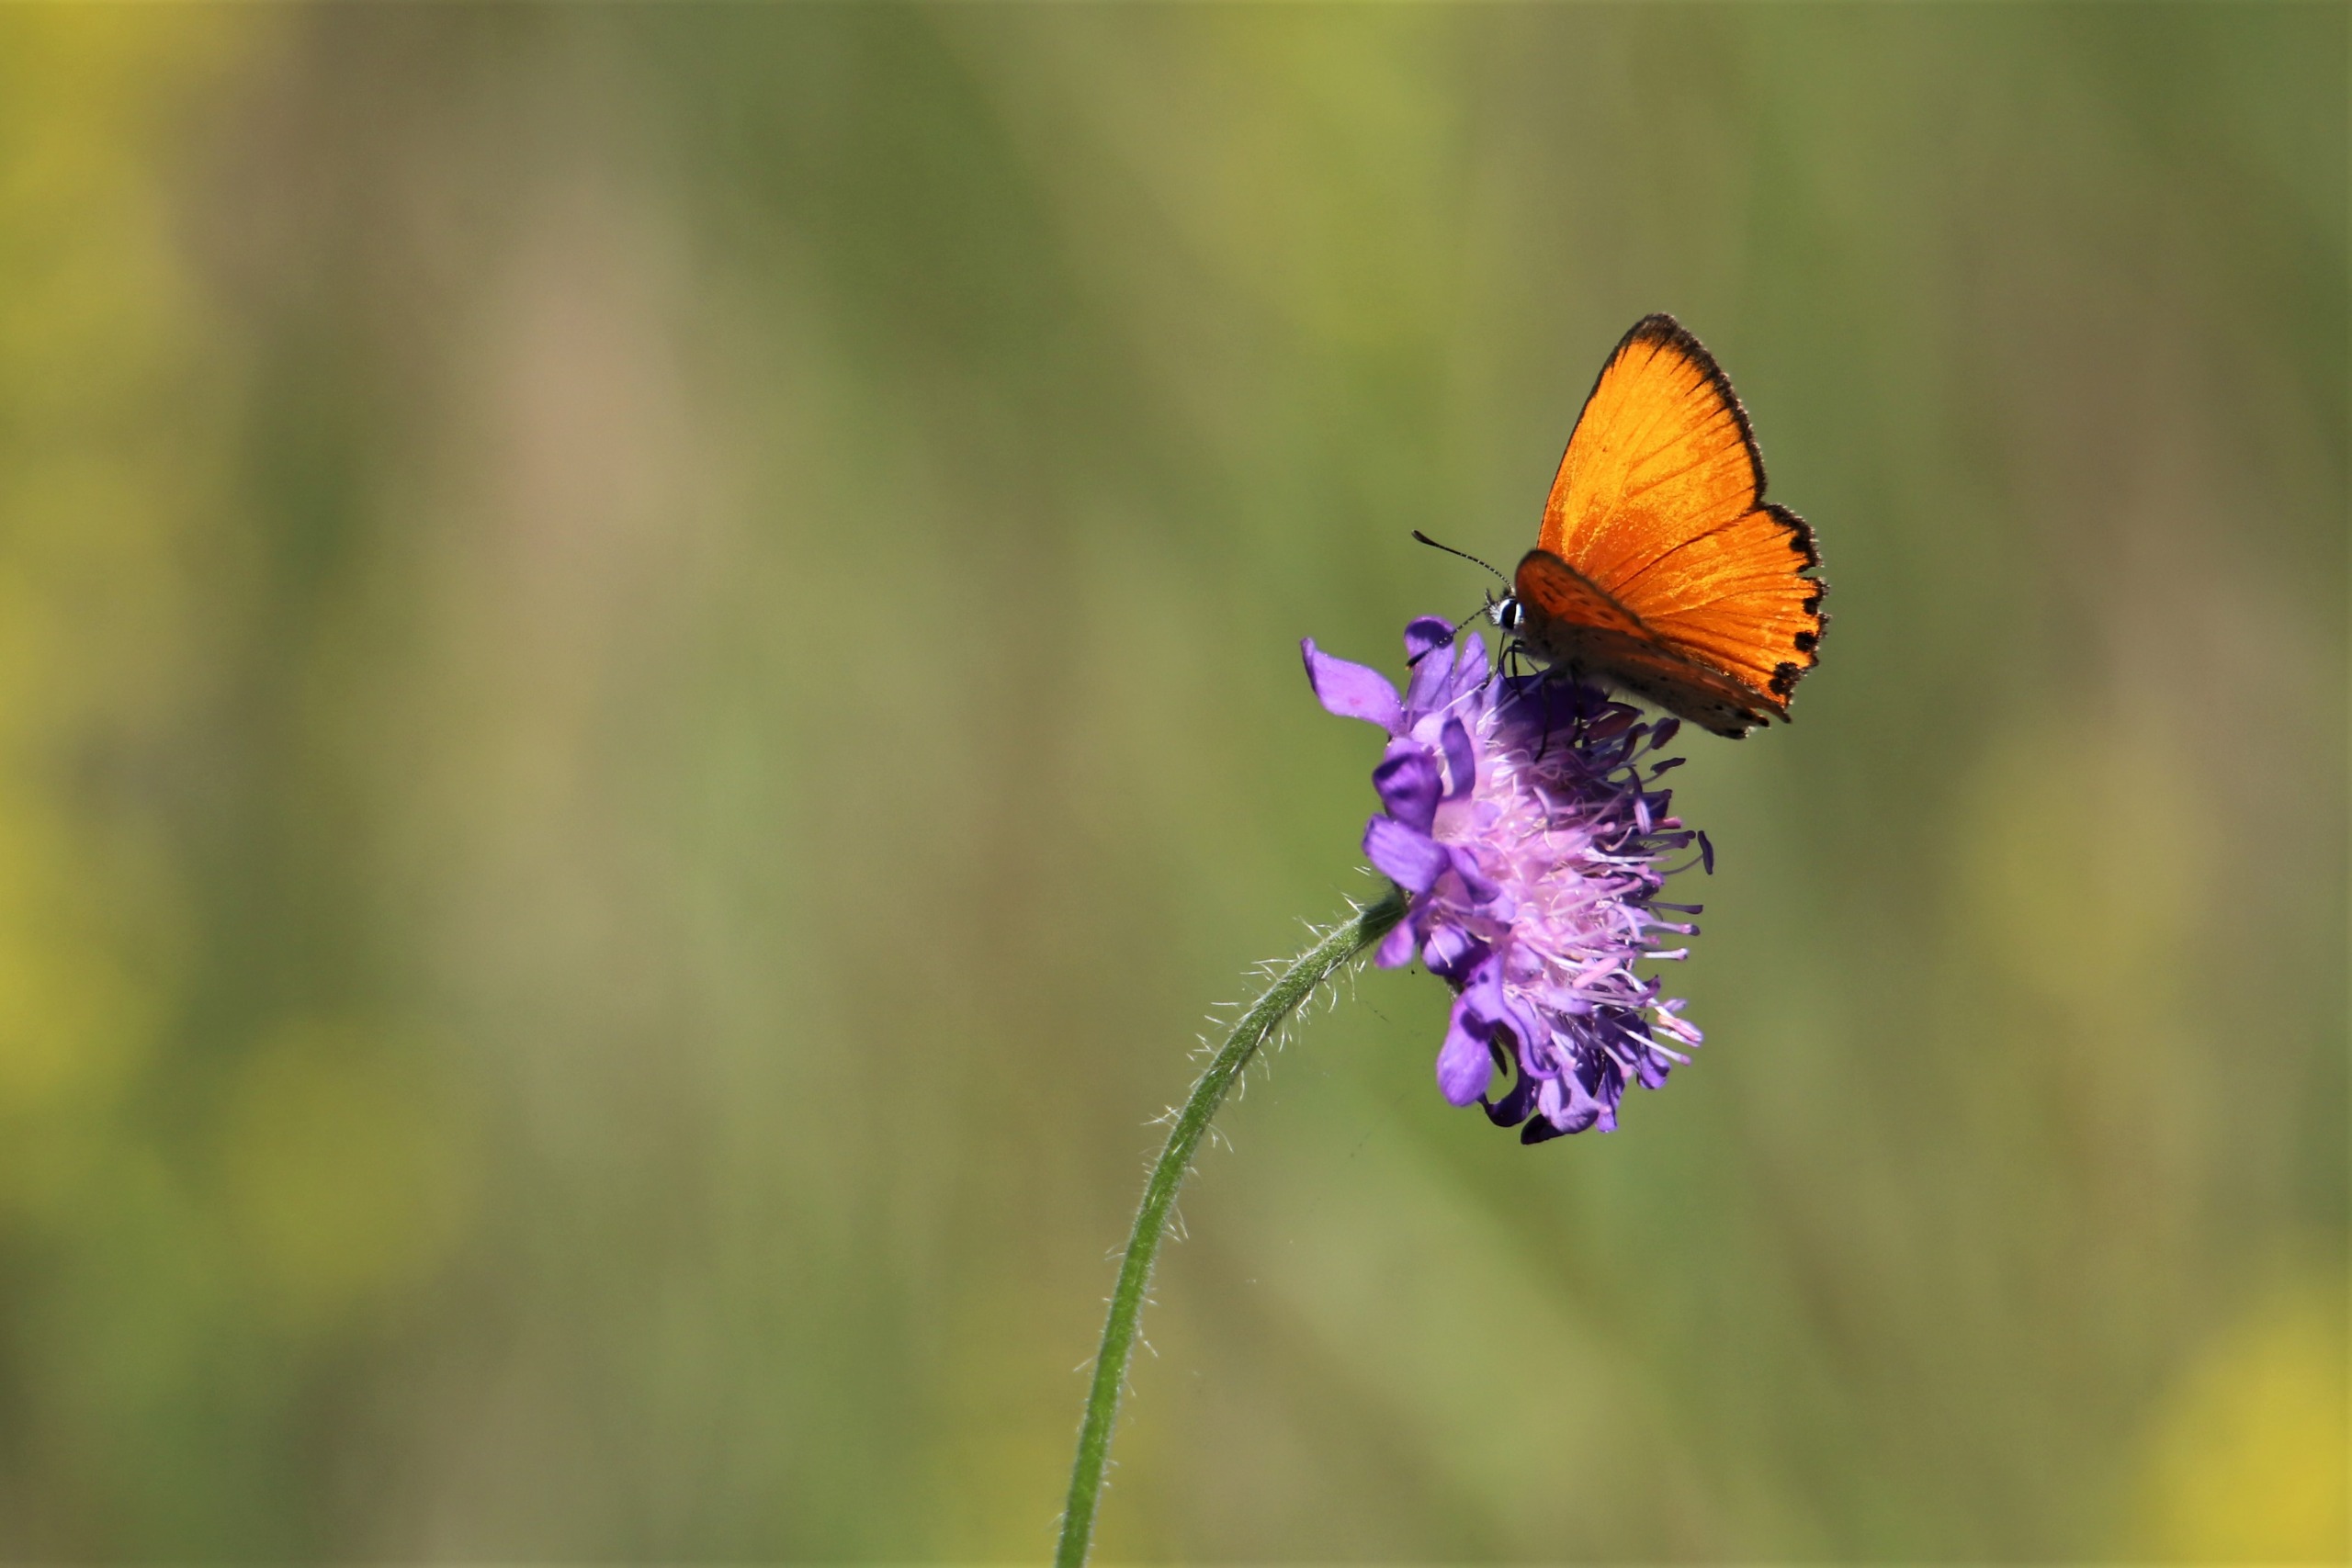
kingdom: Animalia
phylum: Arthropoda
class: Insecta
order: Lepidoptera
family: Lycaenidae
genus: Lycaena
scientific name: Lycaena virgaureae
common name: Dukatsommerfugl
